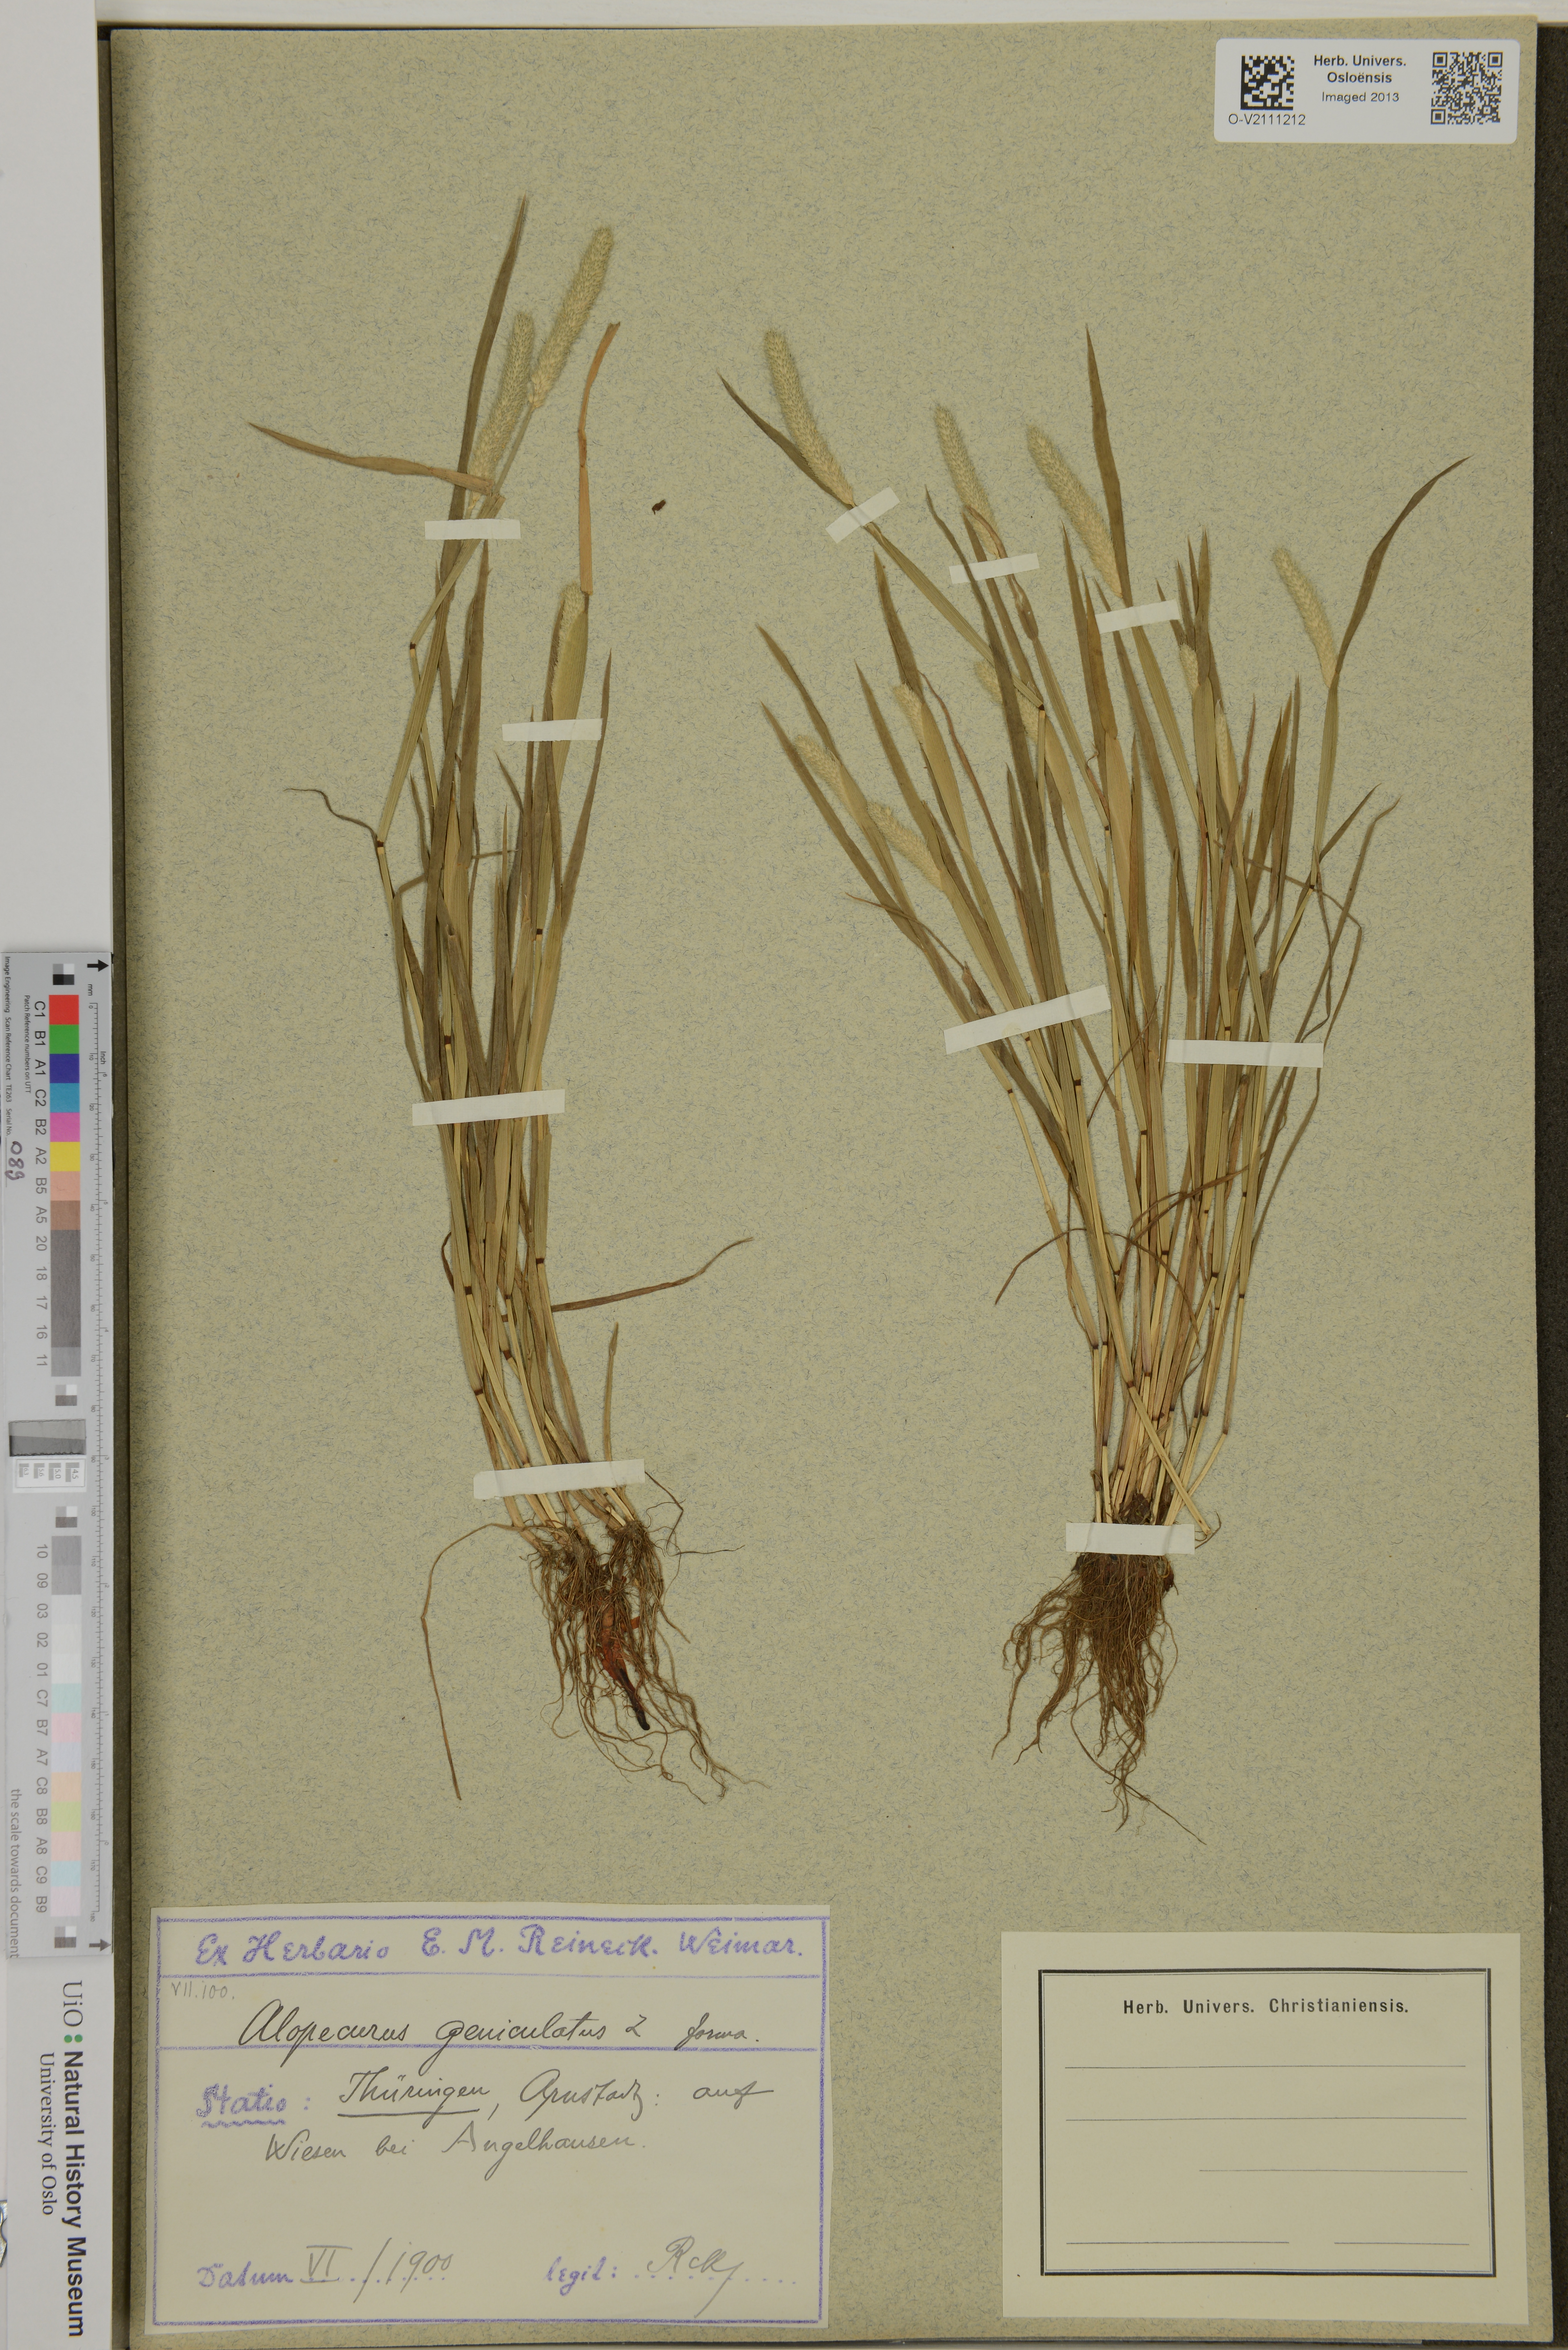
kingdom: Plantae
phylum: Tracheophyta
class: Liliopsida
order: Poales
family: Poaceae
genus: Alopecurus
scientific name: Alopecurus geniculatus
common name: Water foxtail
